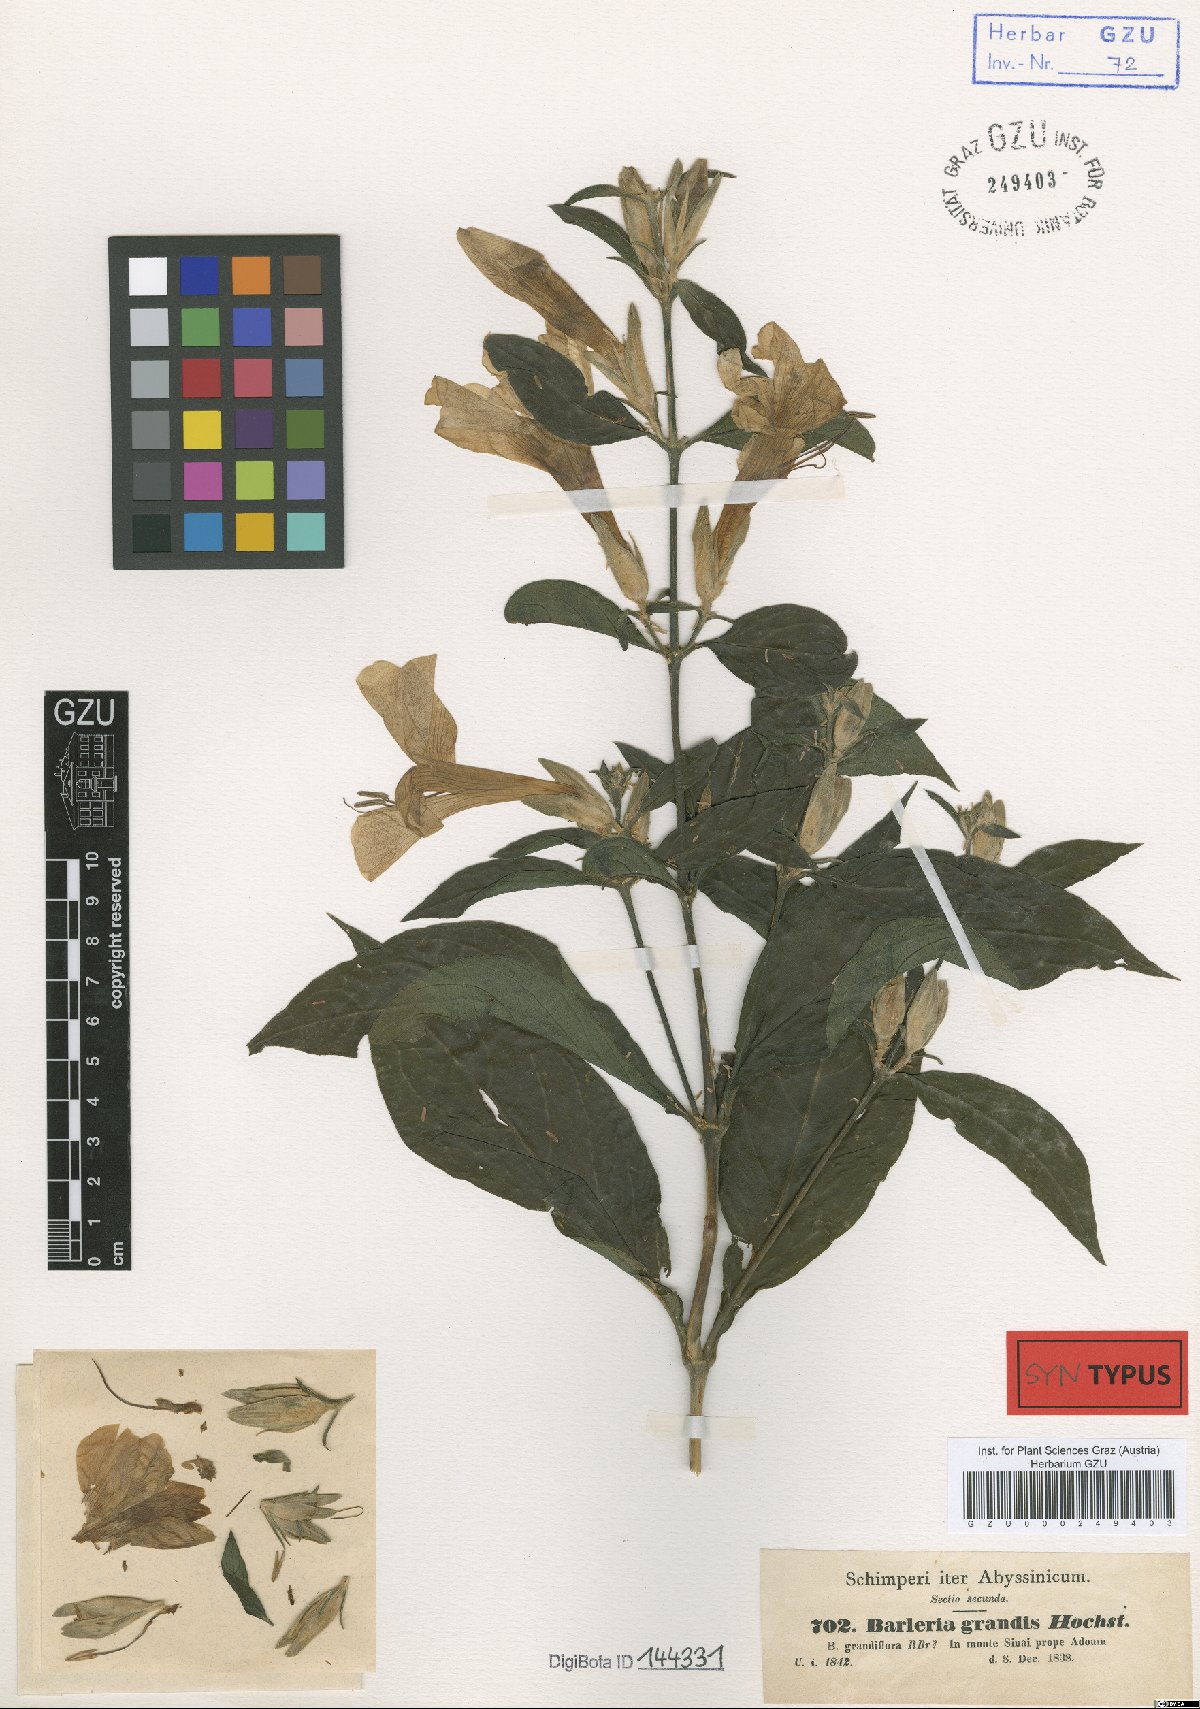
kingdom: Plantae
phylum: Tracheophyta
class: Magnoliopsida
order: Lamiales
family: Acanthaceae
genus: Barleria
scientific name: Barleria grandis
